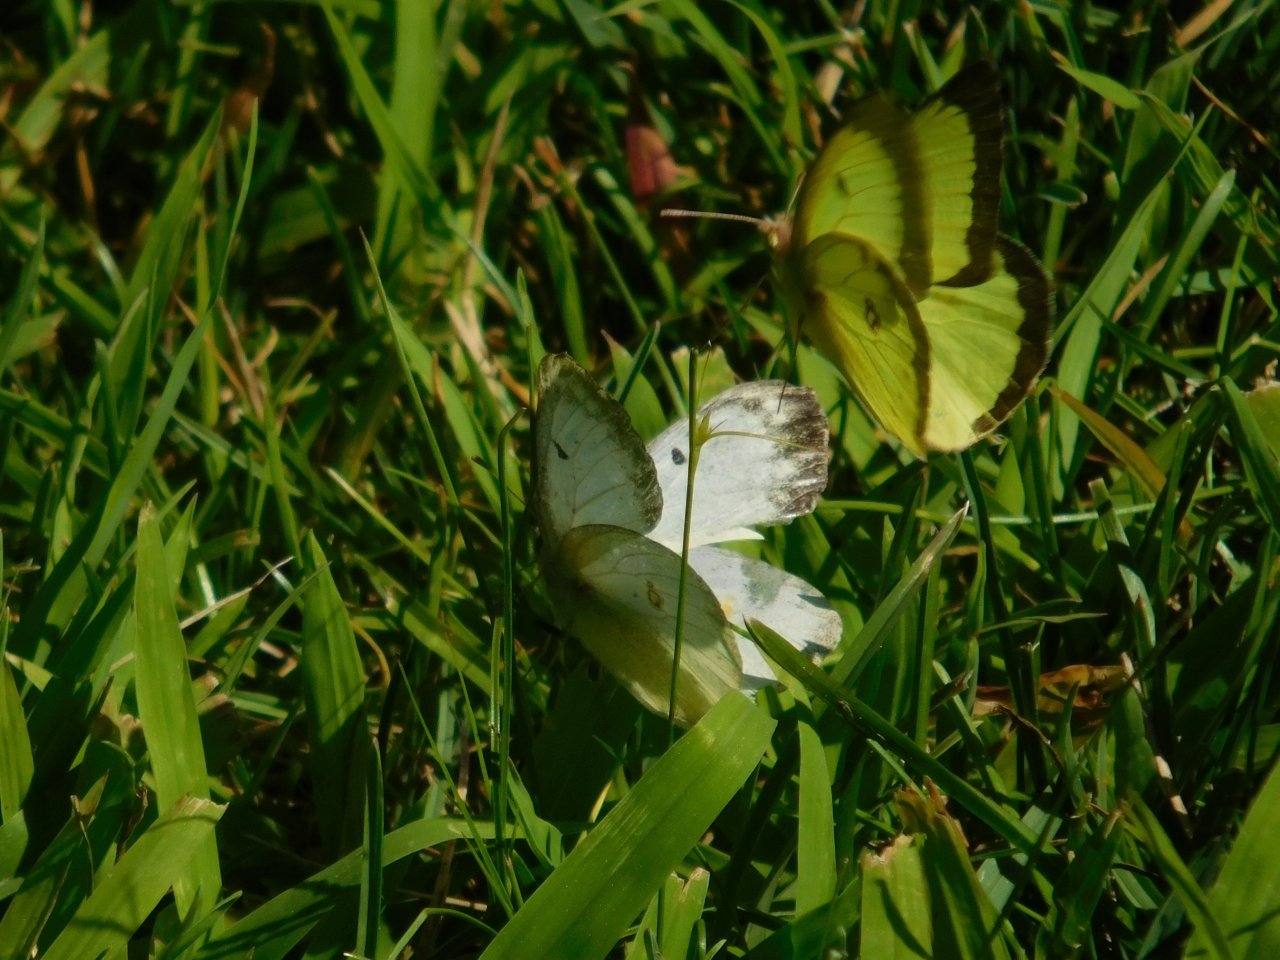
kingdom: Animalia
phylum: Arthropoda
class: Insecta
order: Lepidoptera
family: Pieridae
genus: Colias
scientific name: Colias philodice
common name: Clouded Sulphur
